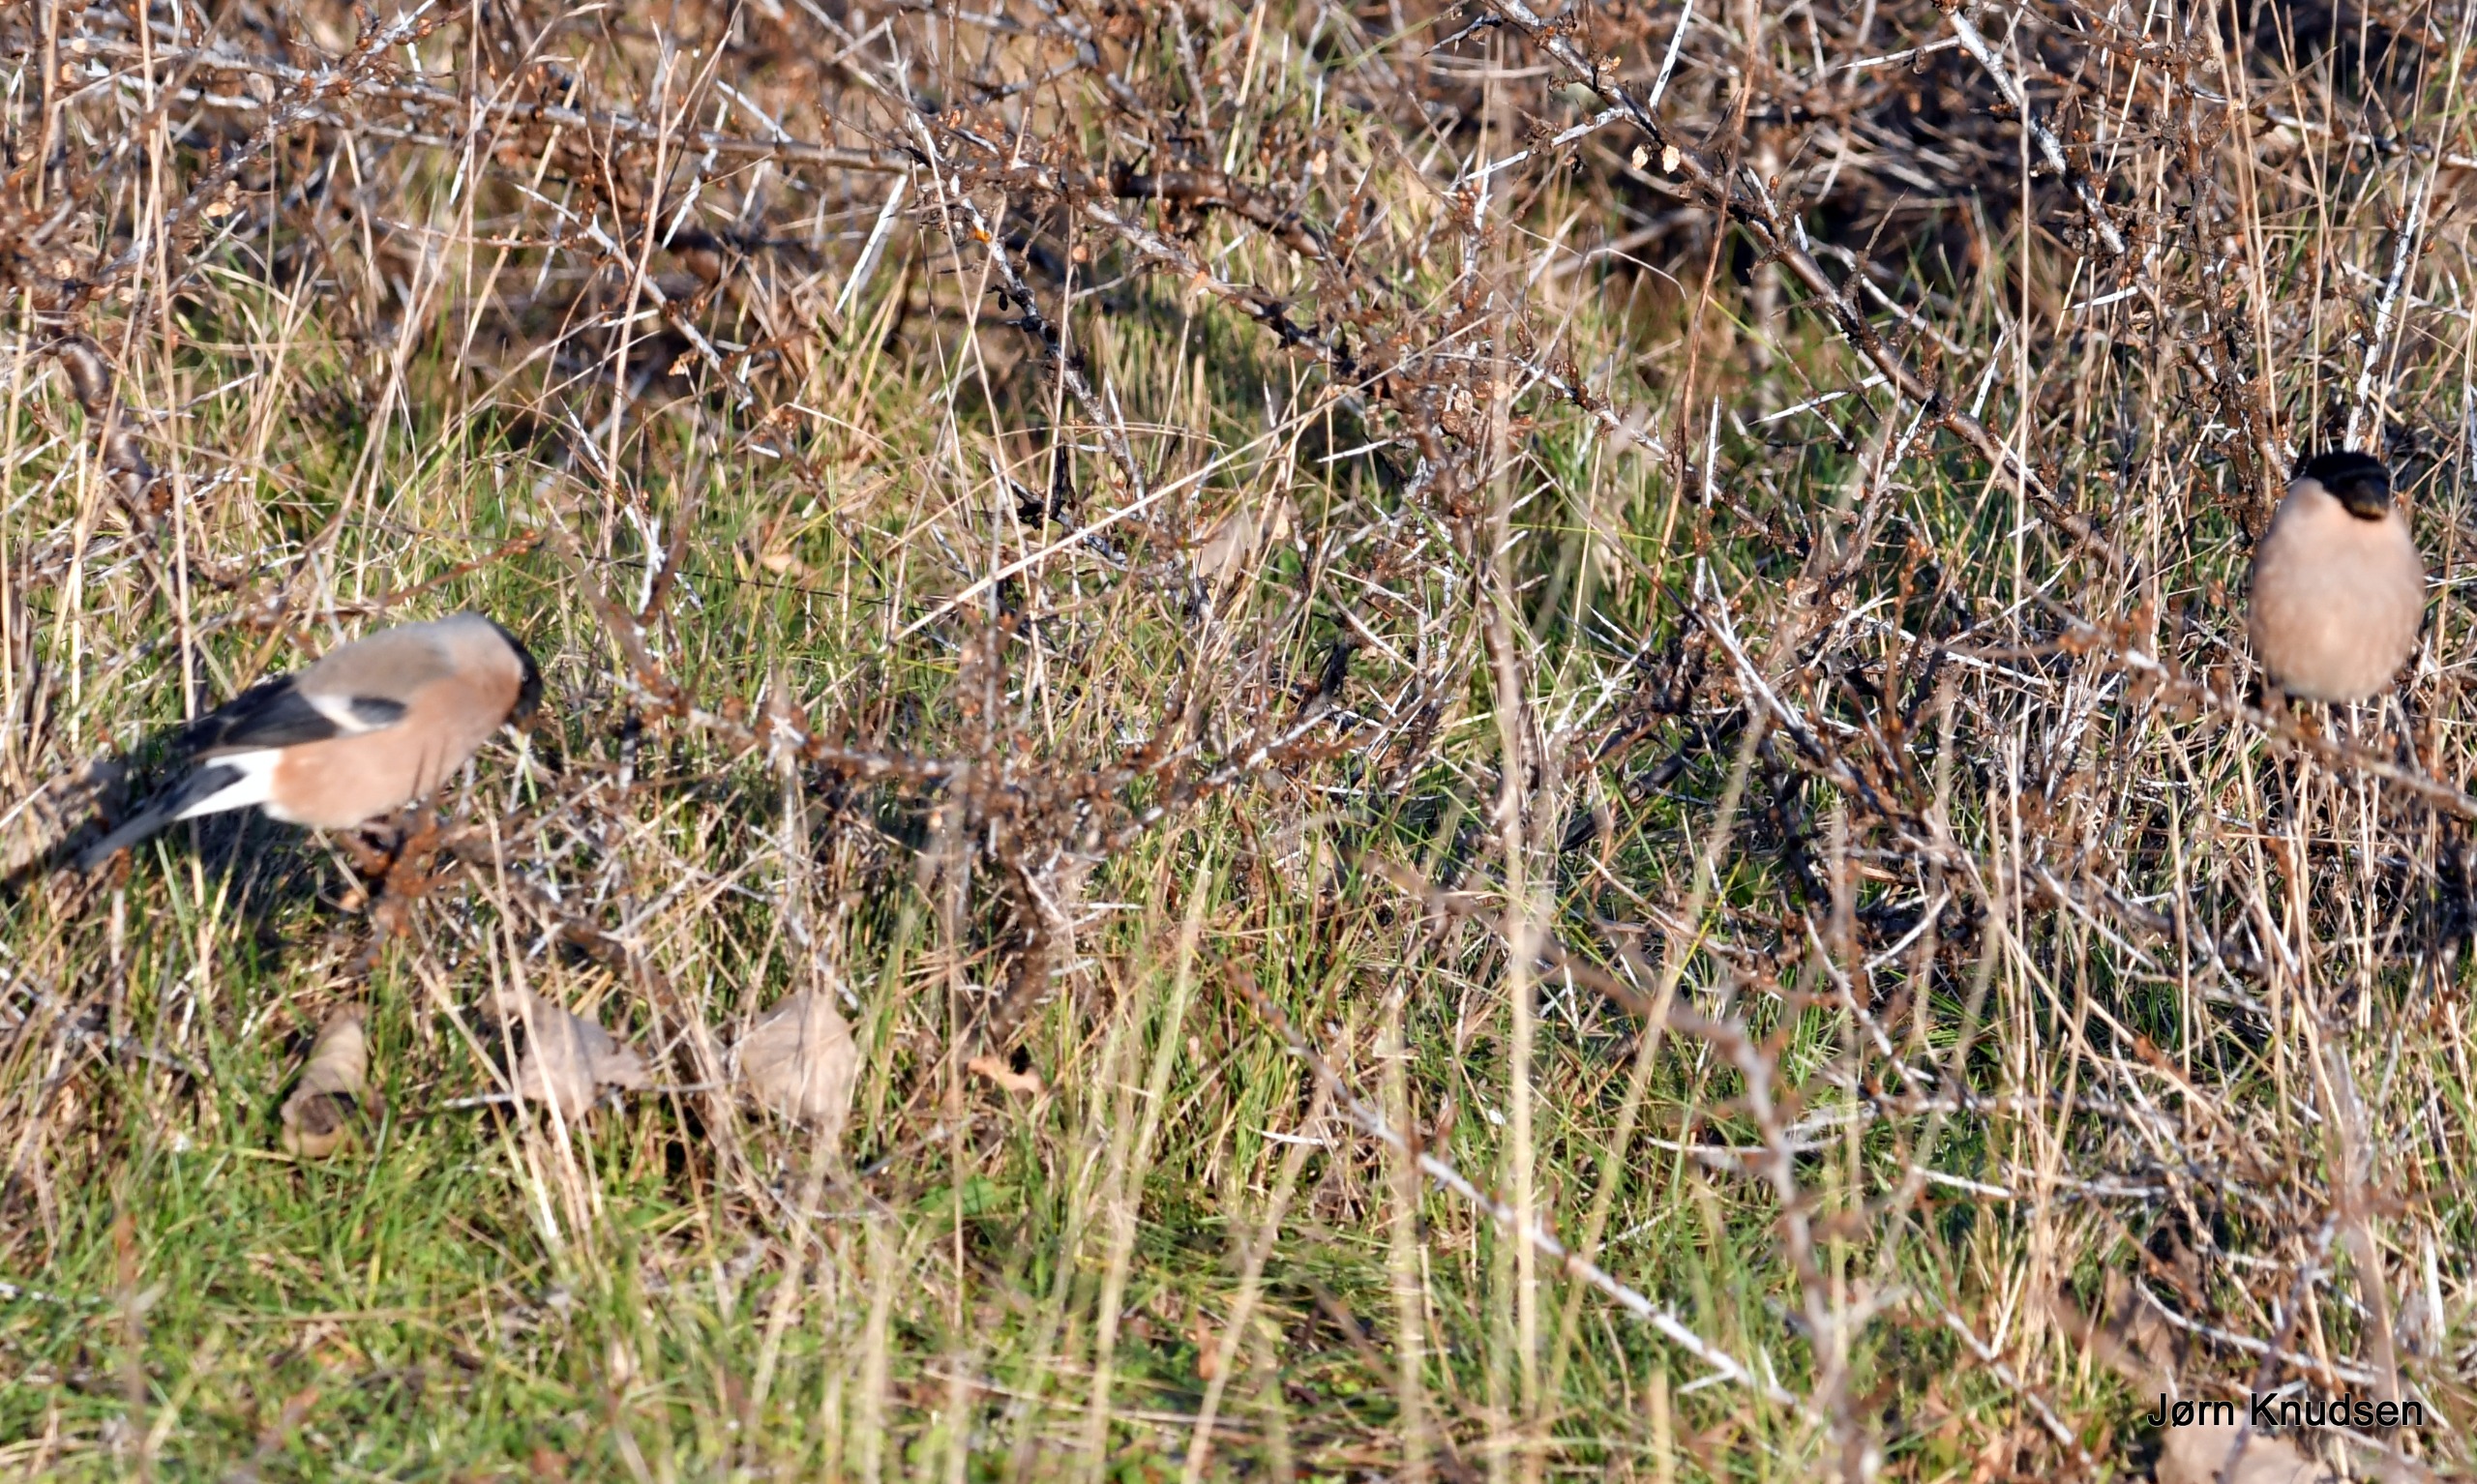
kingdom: Animalia
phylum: Chordata
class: Aves
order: Passeriformes
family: Fringillidae
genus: Pyrrhula
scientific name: Pyrrhula pyrrhula
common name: Dompap
